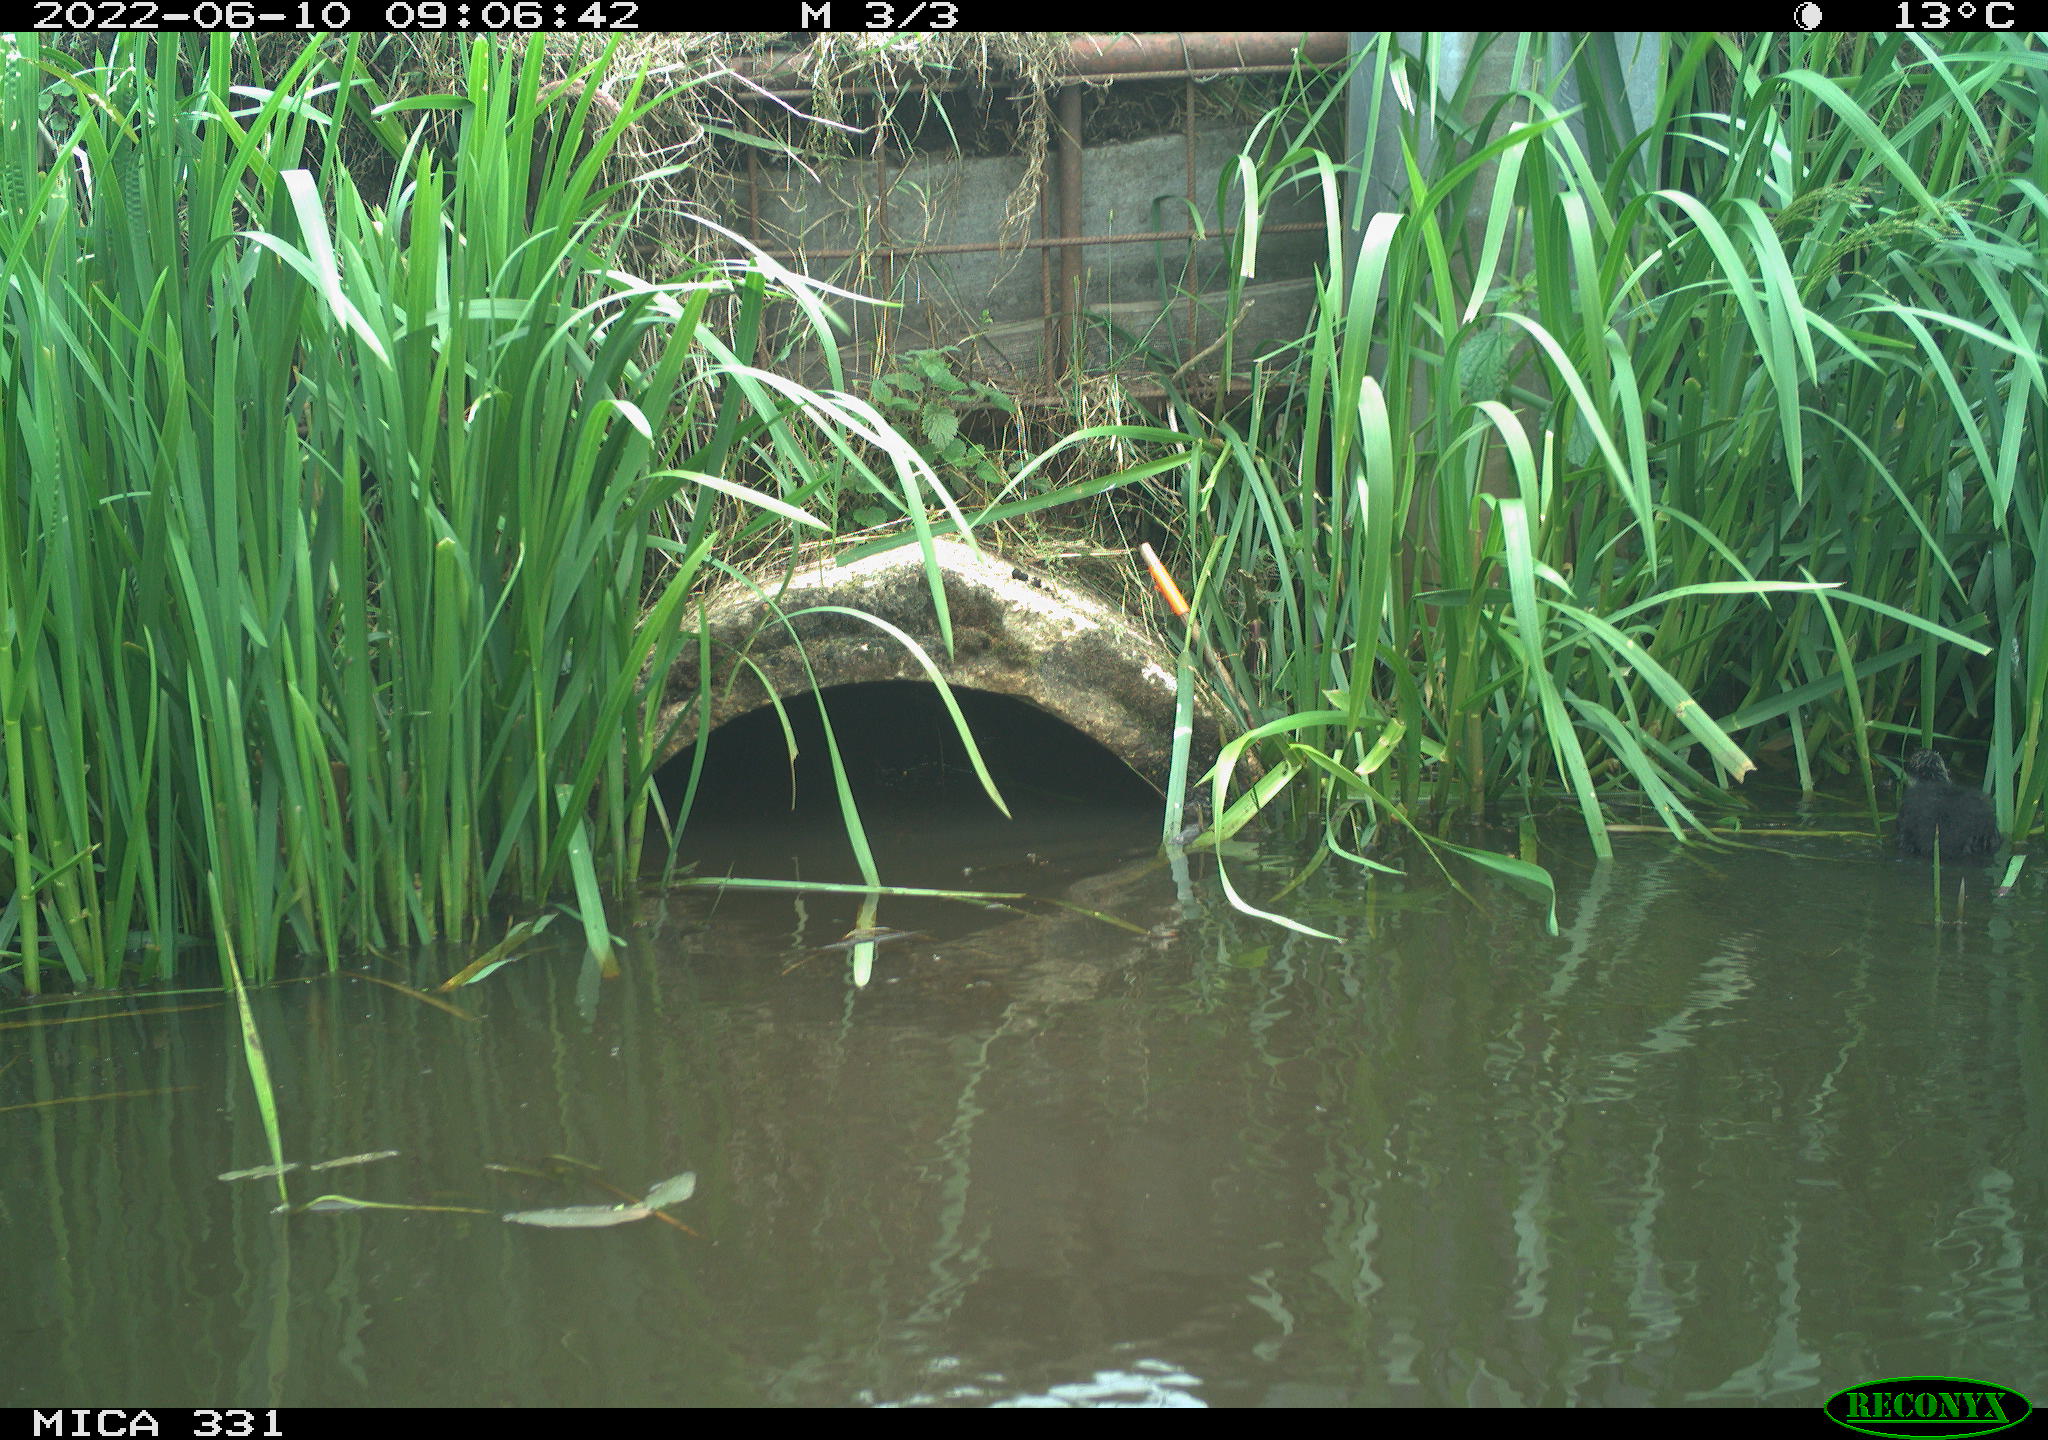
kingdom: Animalia
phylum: Chordata
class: Aves
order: Gruiformes
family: Rallidae
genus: Fulica
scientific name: Fulica atra
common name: Eurasian coot
